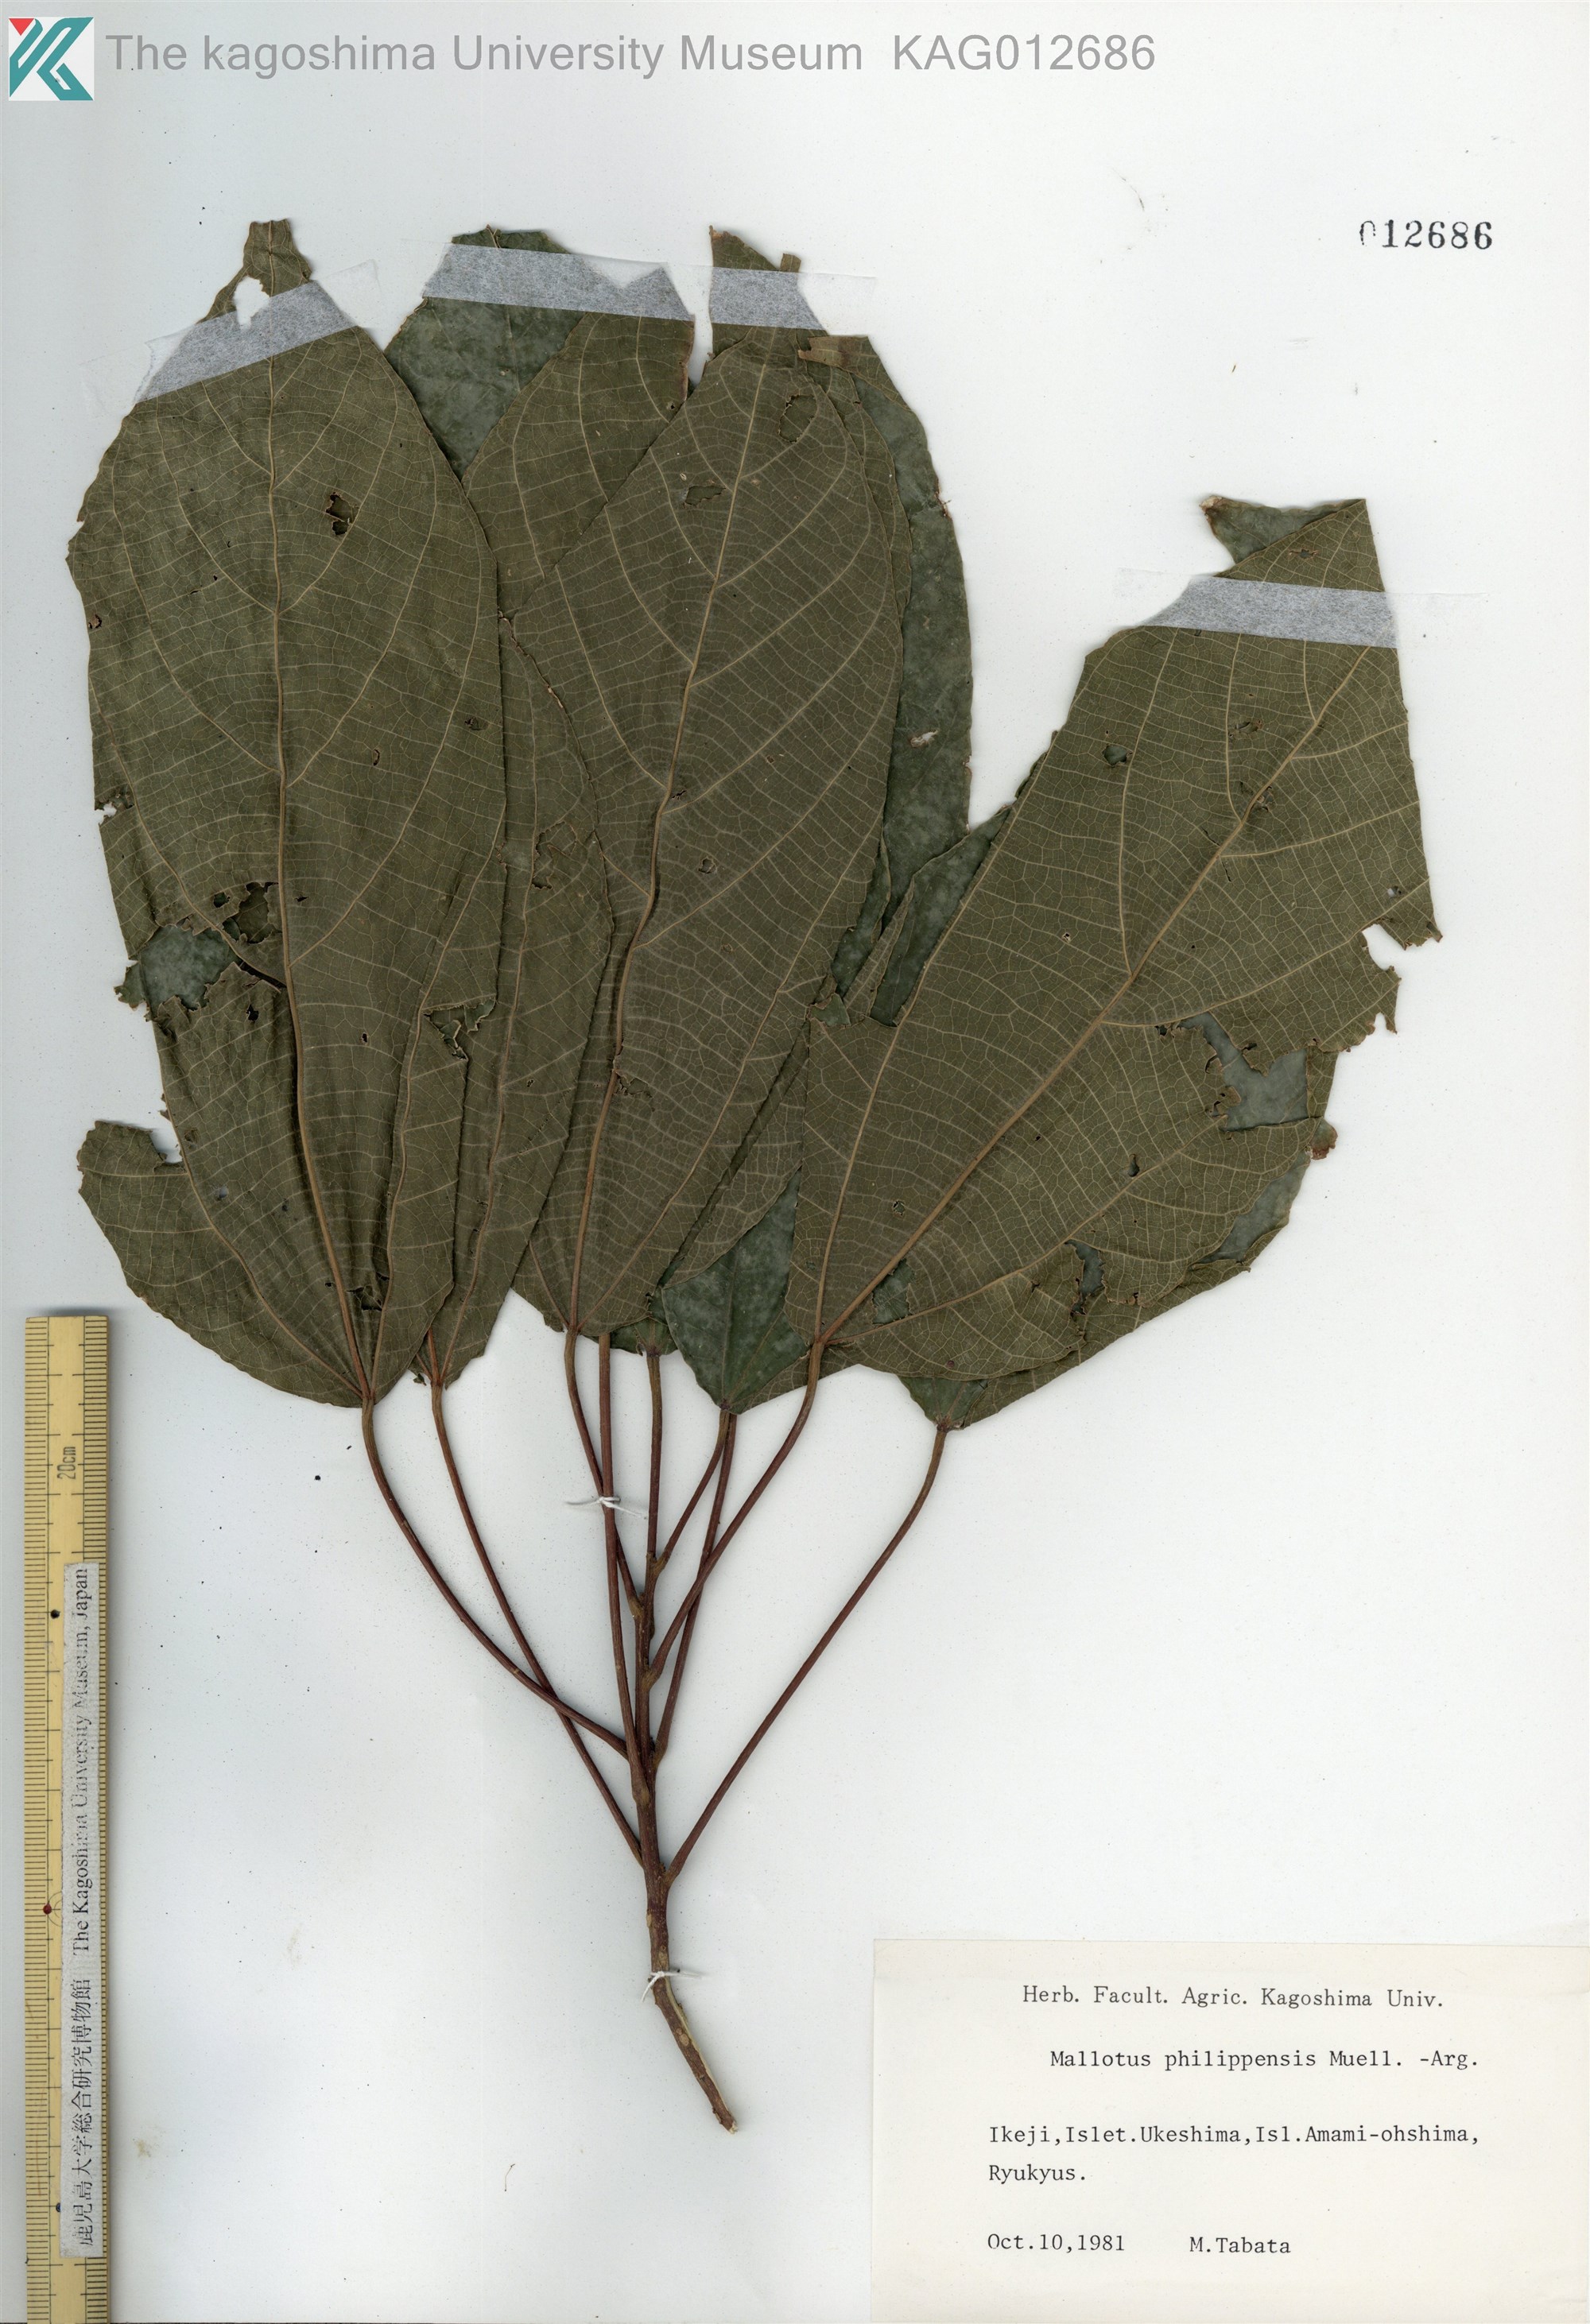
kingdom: Plantae
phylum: Tracheophyta
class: Magnoliopsida
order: Malpighiales
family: Euphorbiaceae
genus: Mallotus
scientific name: Mallotus philippensis
